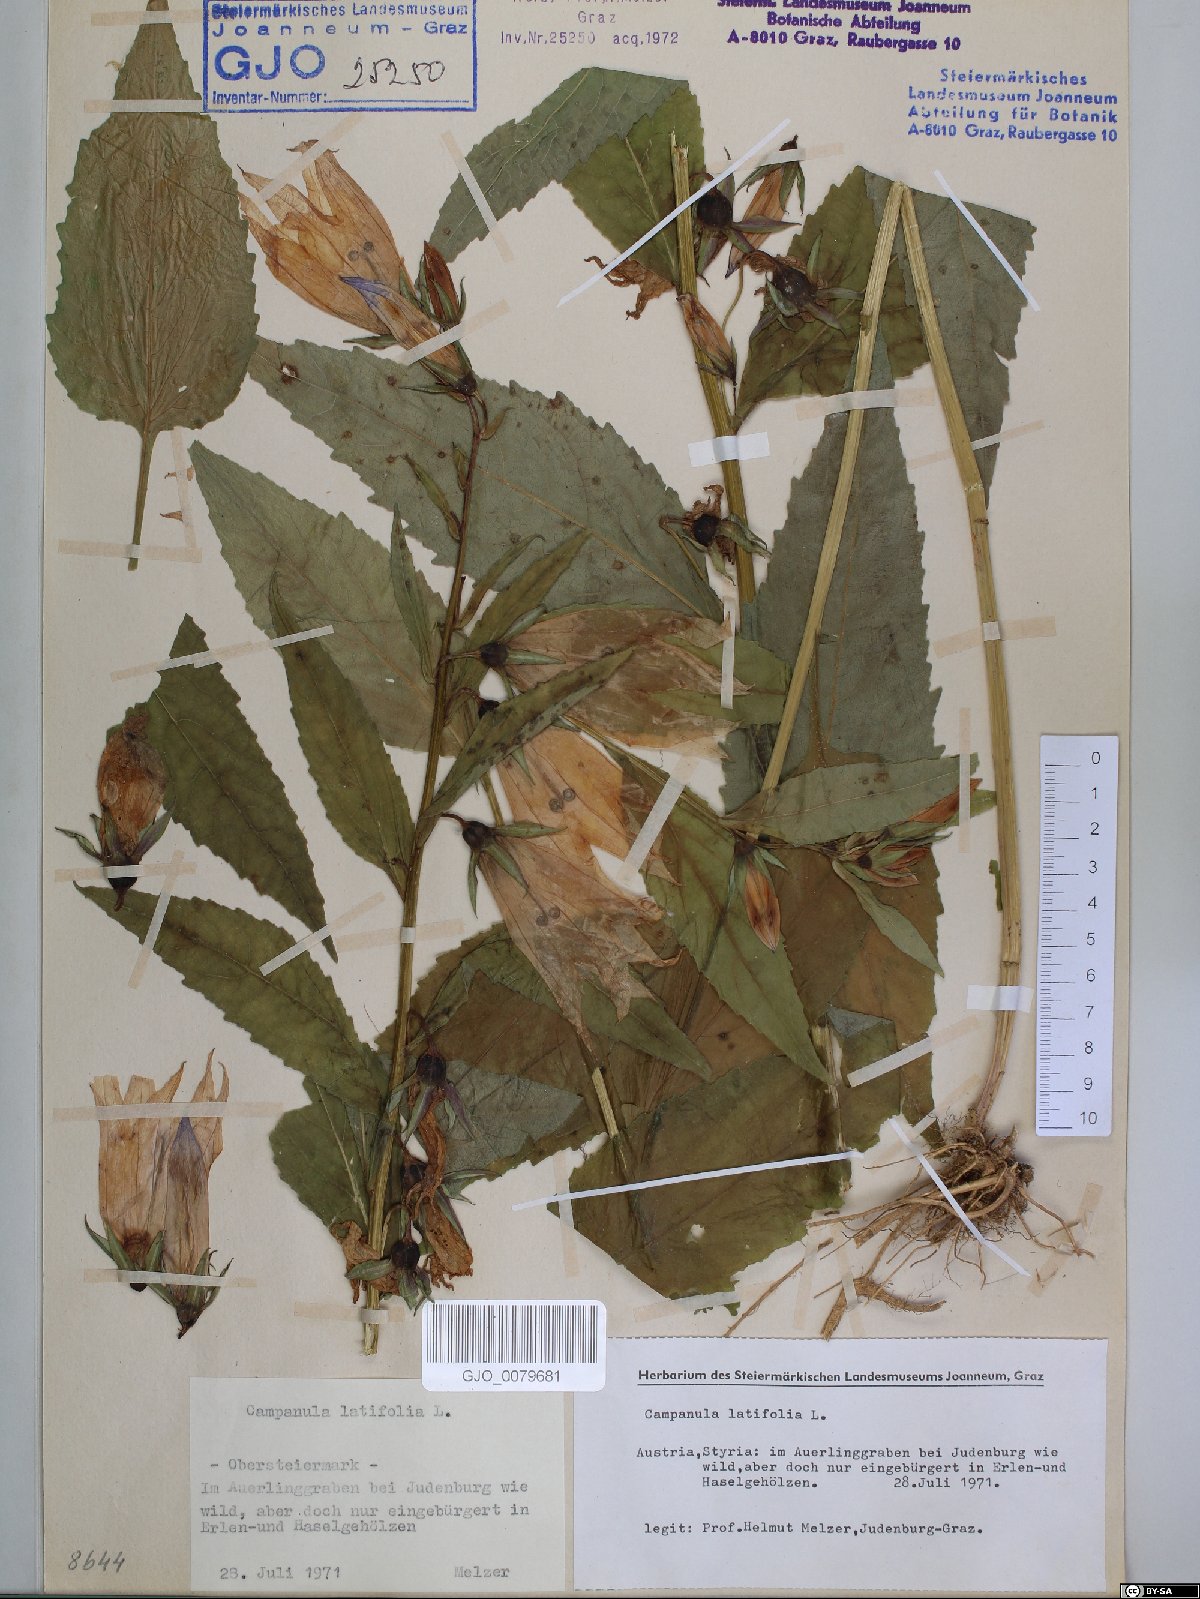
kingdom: Plantae
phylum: Tracheophyta
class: Magnoliopsida
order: Asterales
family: Campanulaceae
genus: Campanula
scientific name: Campanula latifolia
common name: Giant bellflower
